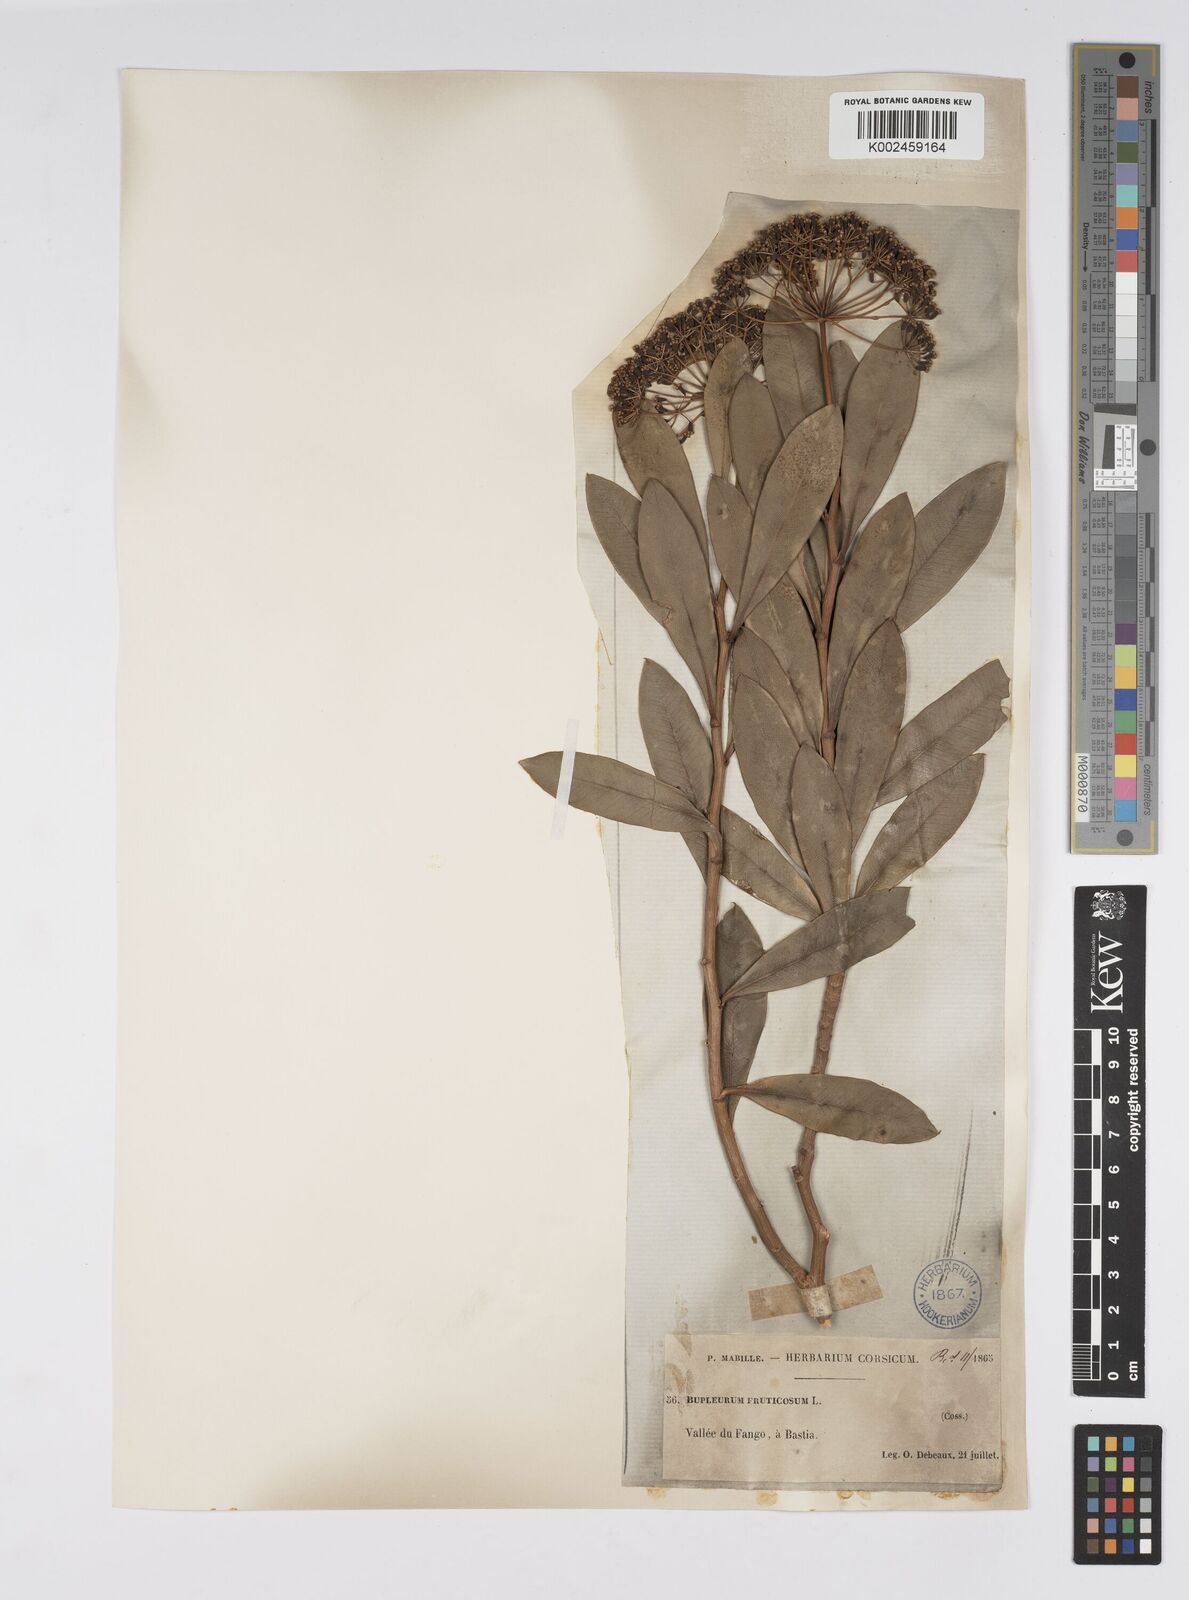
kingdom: Plantae
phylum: Tracheophyta
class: Magnoliopsida
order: Apiales
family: Apiaceae
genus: Bupleurum
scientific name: Bupleurum fruticosum
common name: Shrubby hare's-ear
